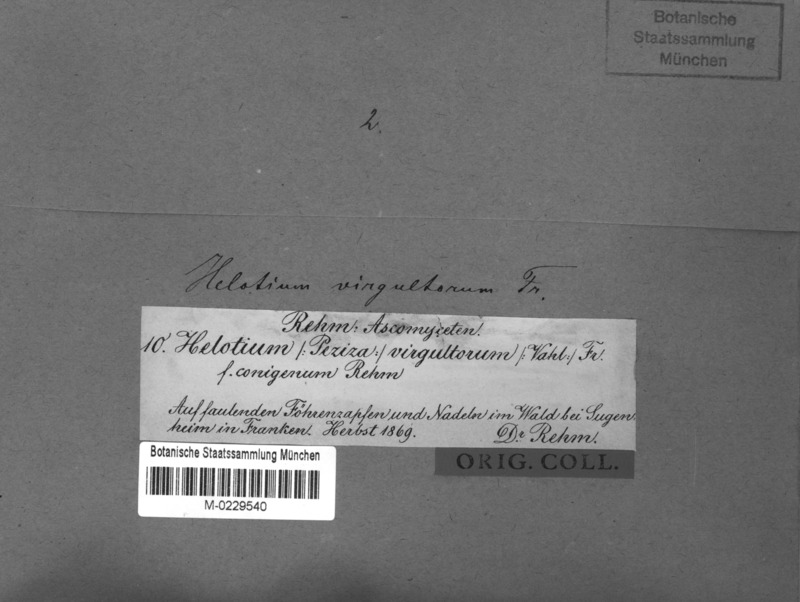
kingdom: Fungi
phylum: Ascomycota
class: Leotiomycetes
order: Helotiales
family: Helotiaceae
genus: Hymenoscyphus
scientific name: Hymenoscyphus calyculus
